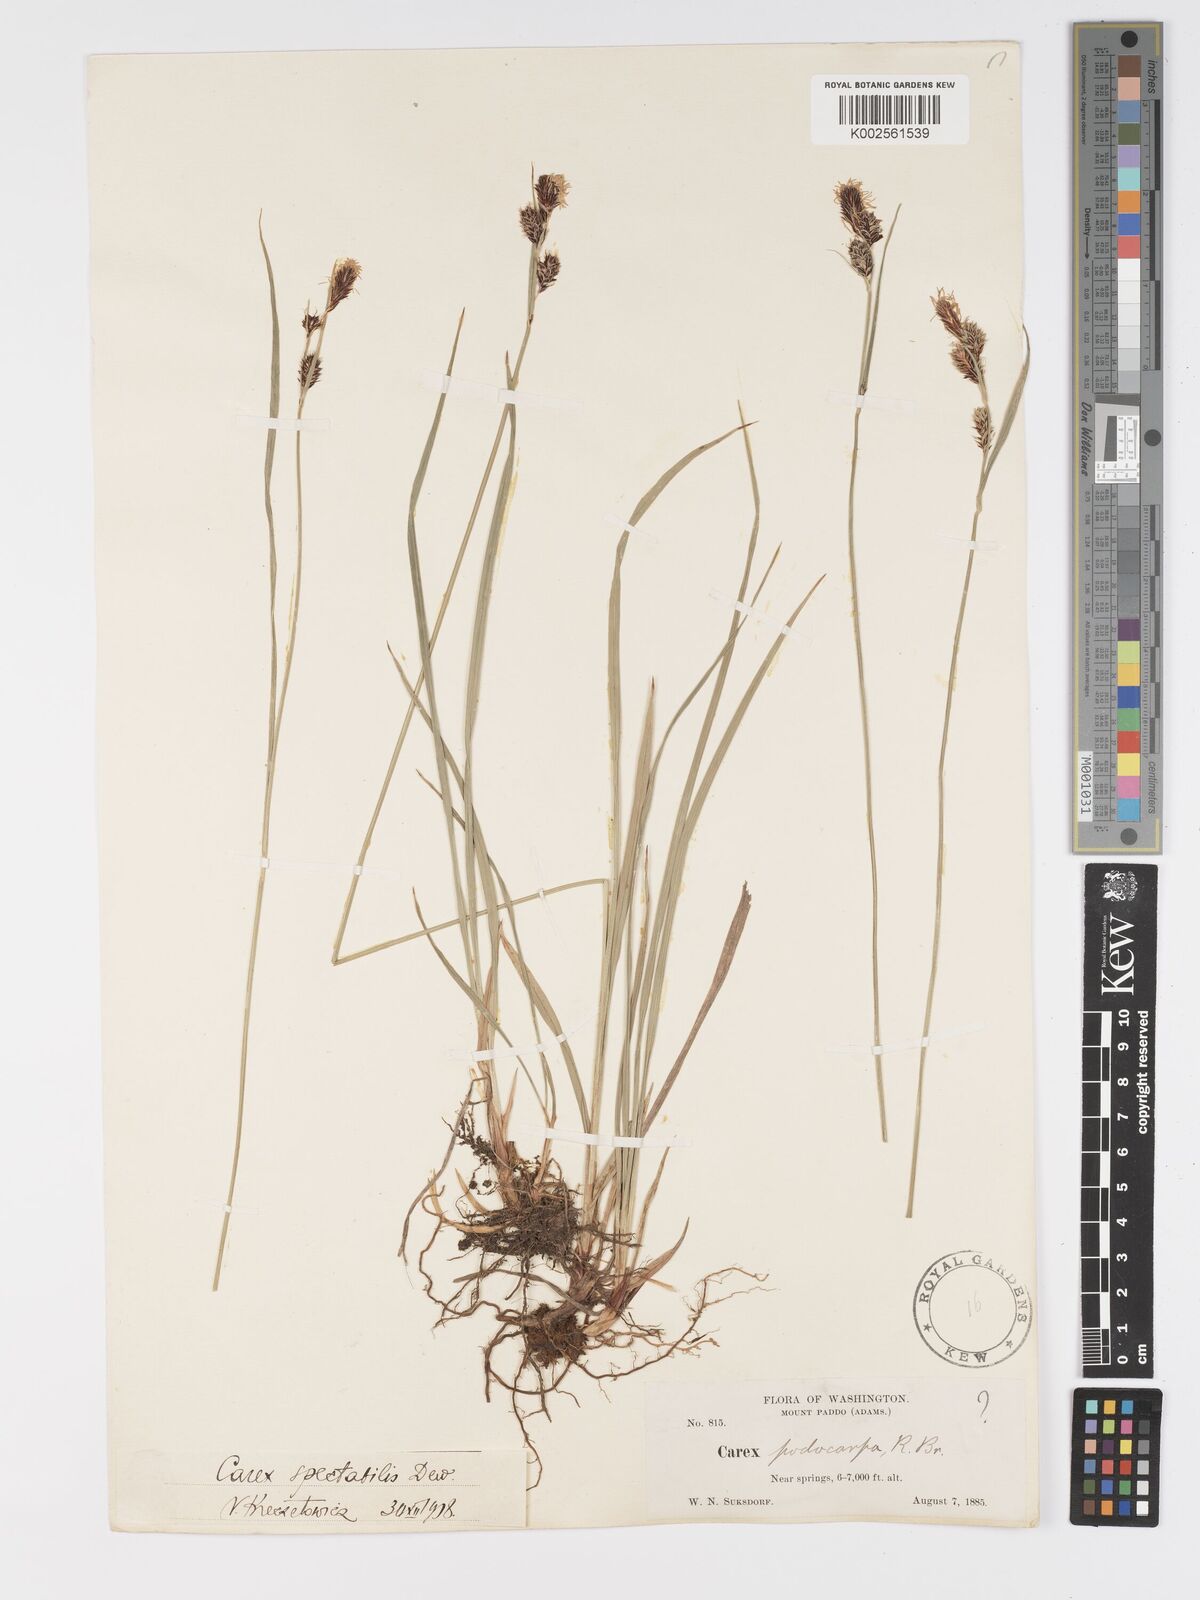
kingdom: Plantae
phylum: Tracheophyta
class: Liliopsida
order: Poales
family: Cyperaceae
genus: Carex
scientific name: Carex spectabilis
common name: Northwestern showy sedge
